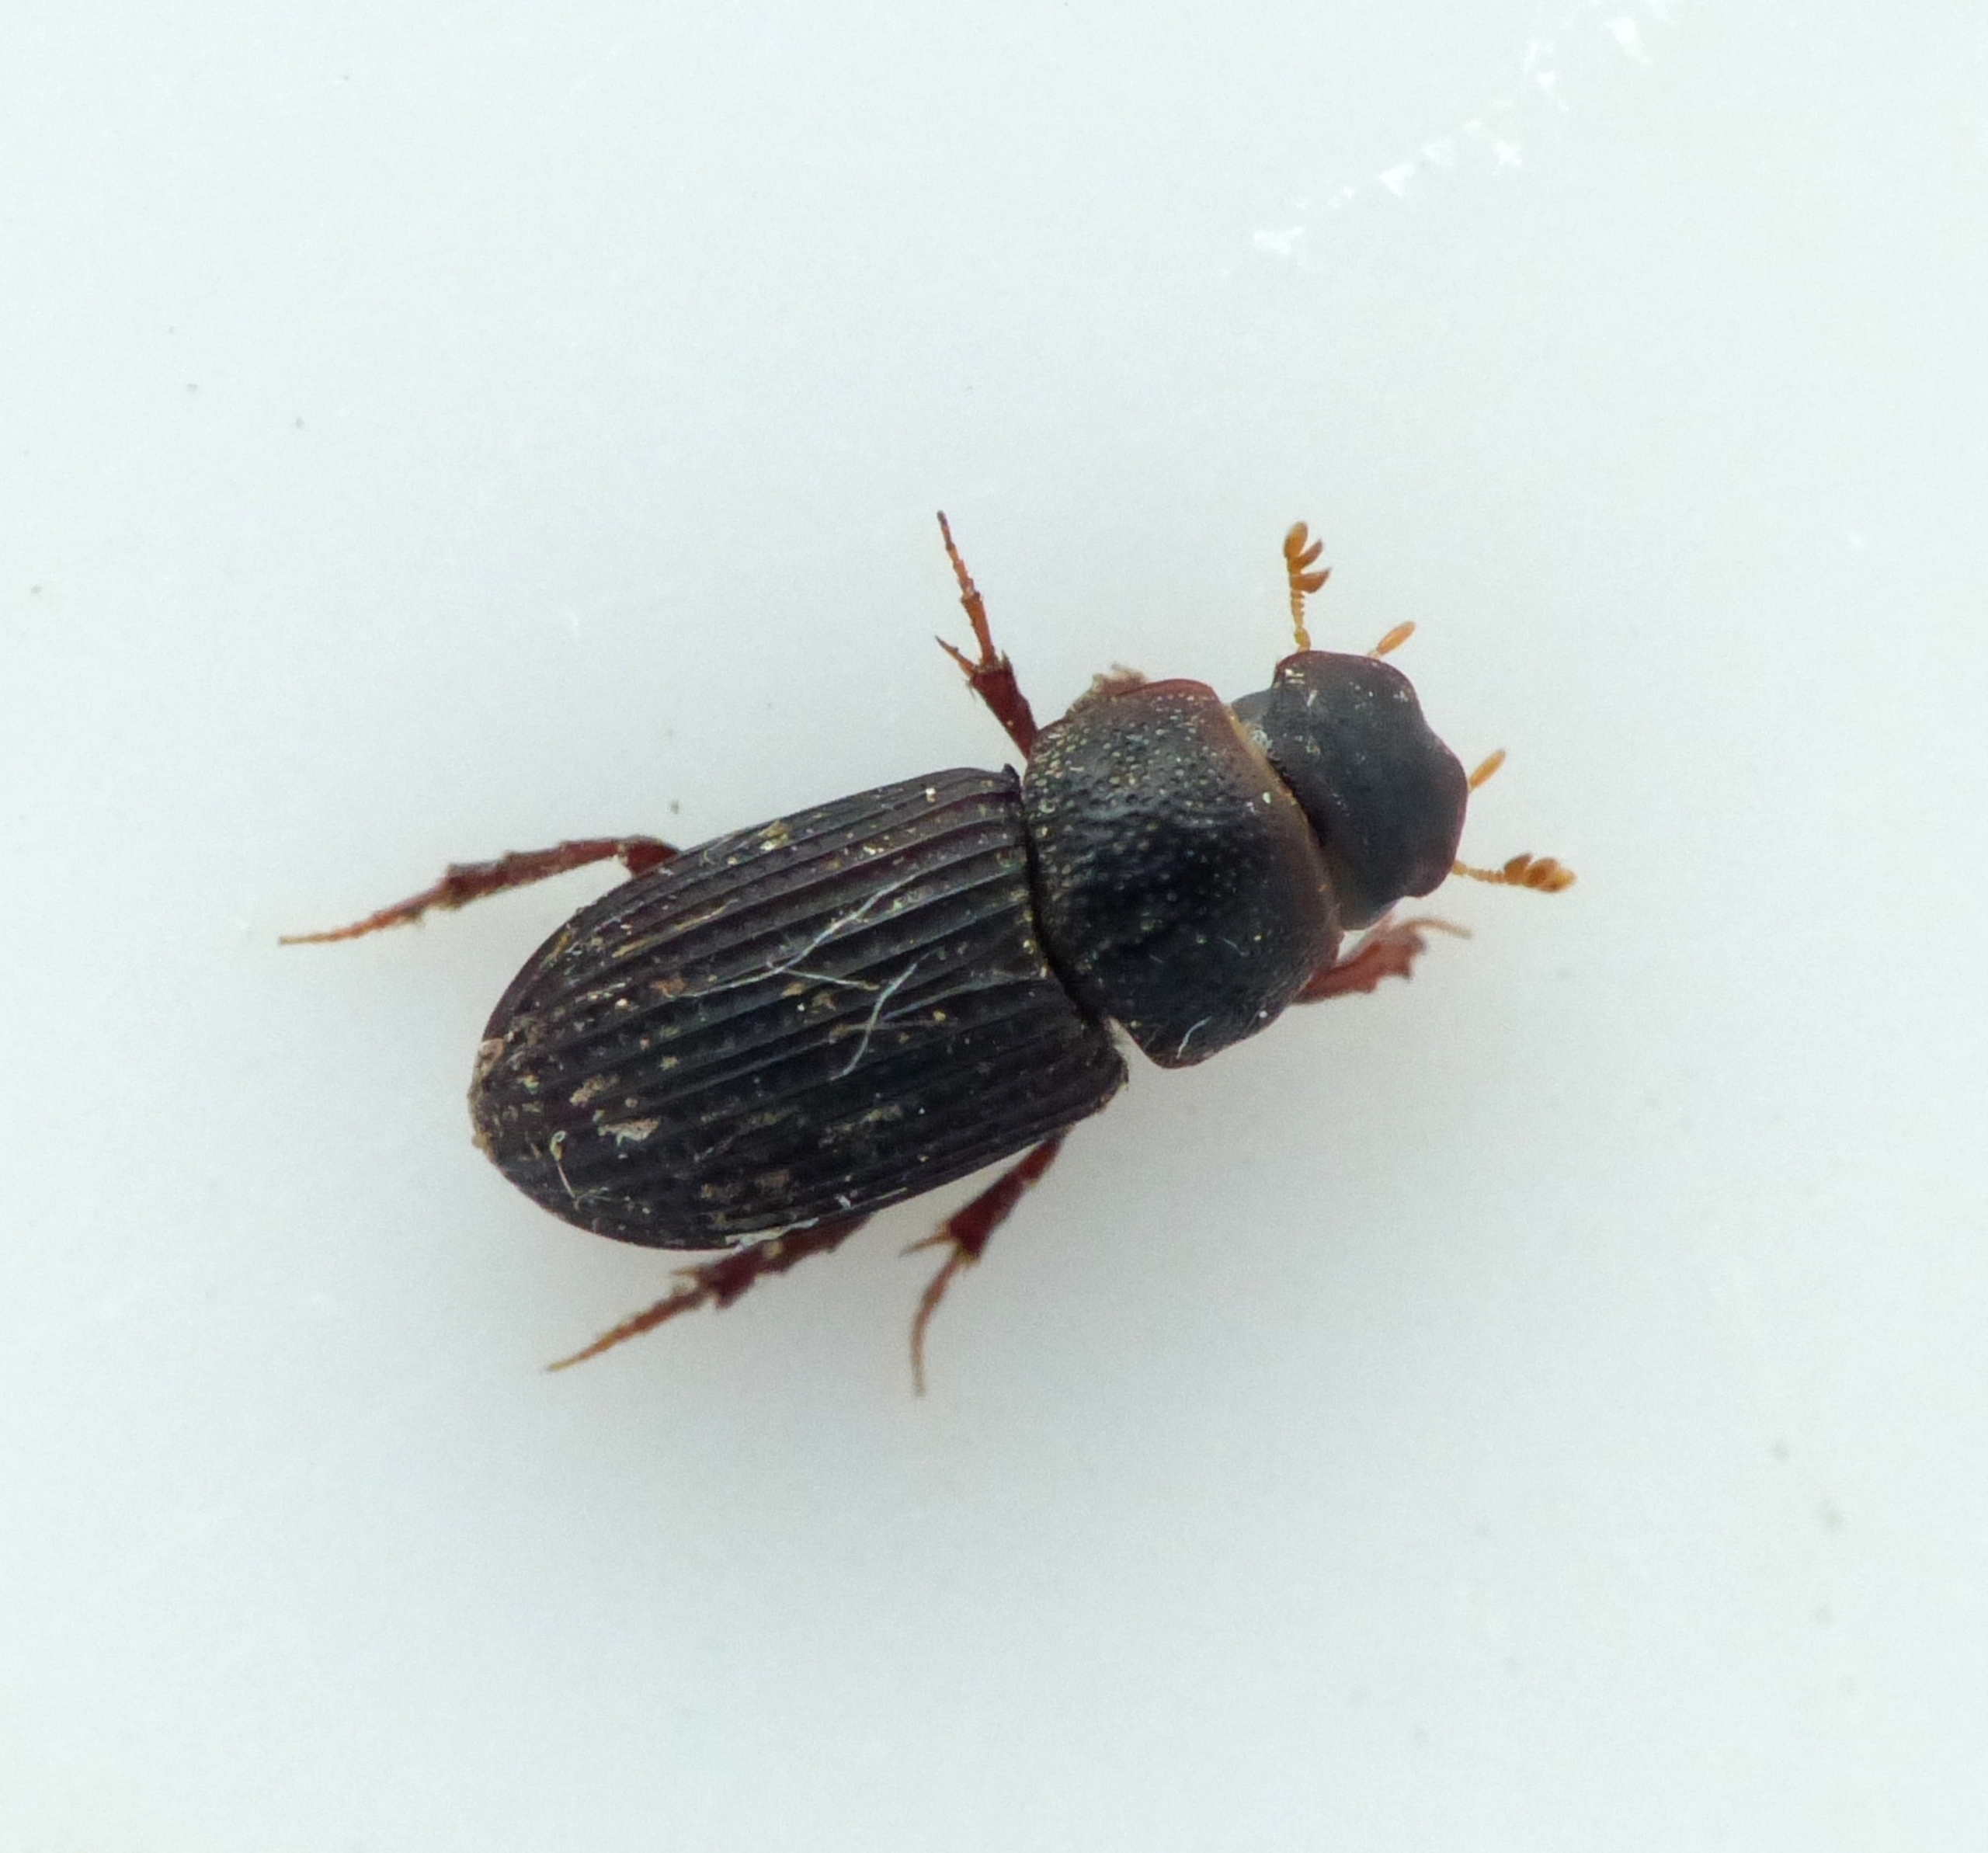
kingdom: Animalia
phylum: Arthropoda
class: Insecta
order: Coleoptera
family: Scarabaeidae
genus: Oxyomus
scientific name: Oxyomus sylvestris
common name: Kompostmøgbille
